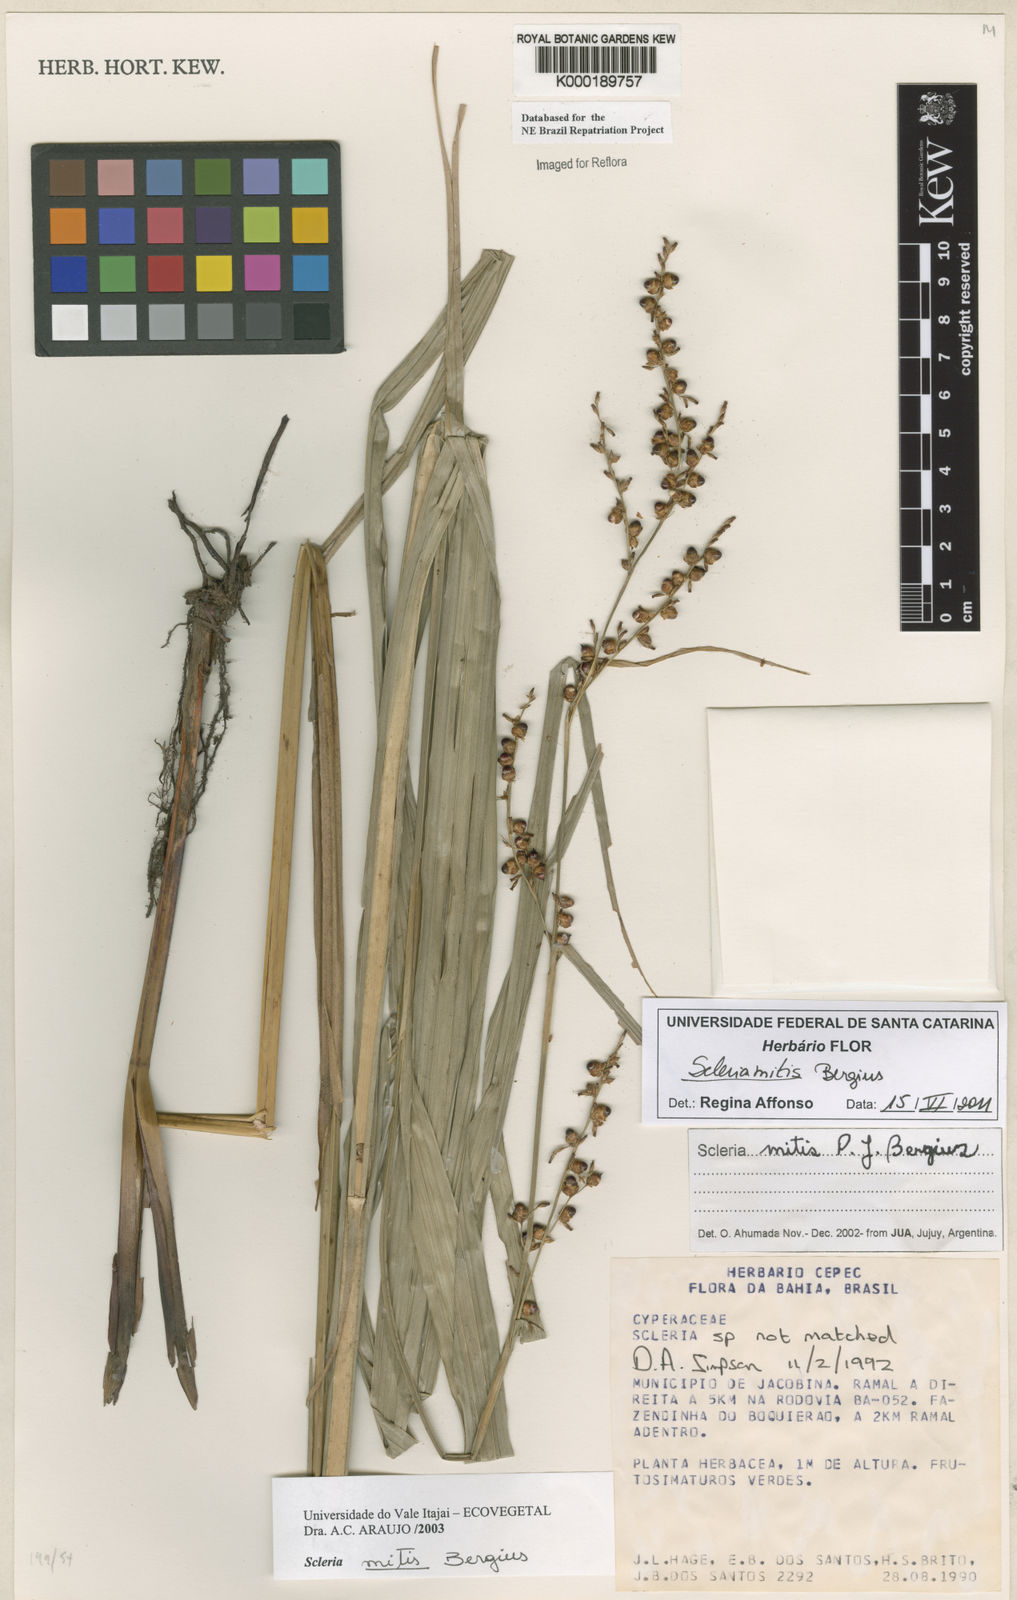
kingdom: Plantae
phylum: Tracheophyta
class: Liliopsida
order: Poales
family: Cyperaceae
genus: Scleria
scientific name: Scleria mitis
